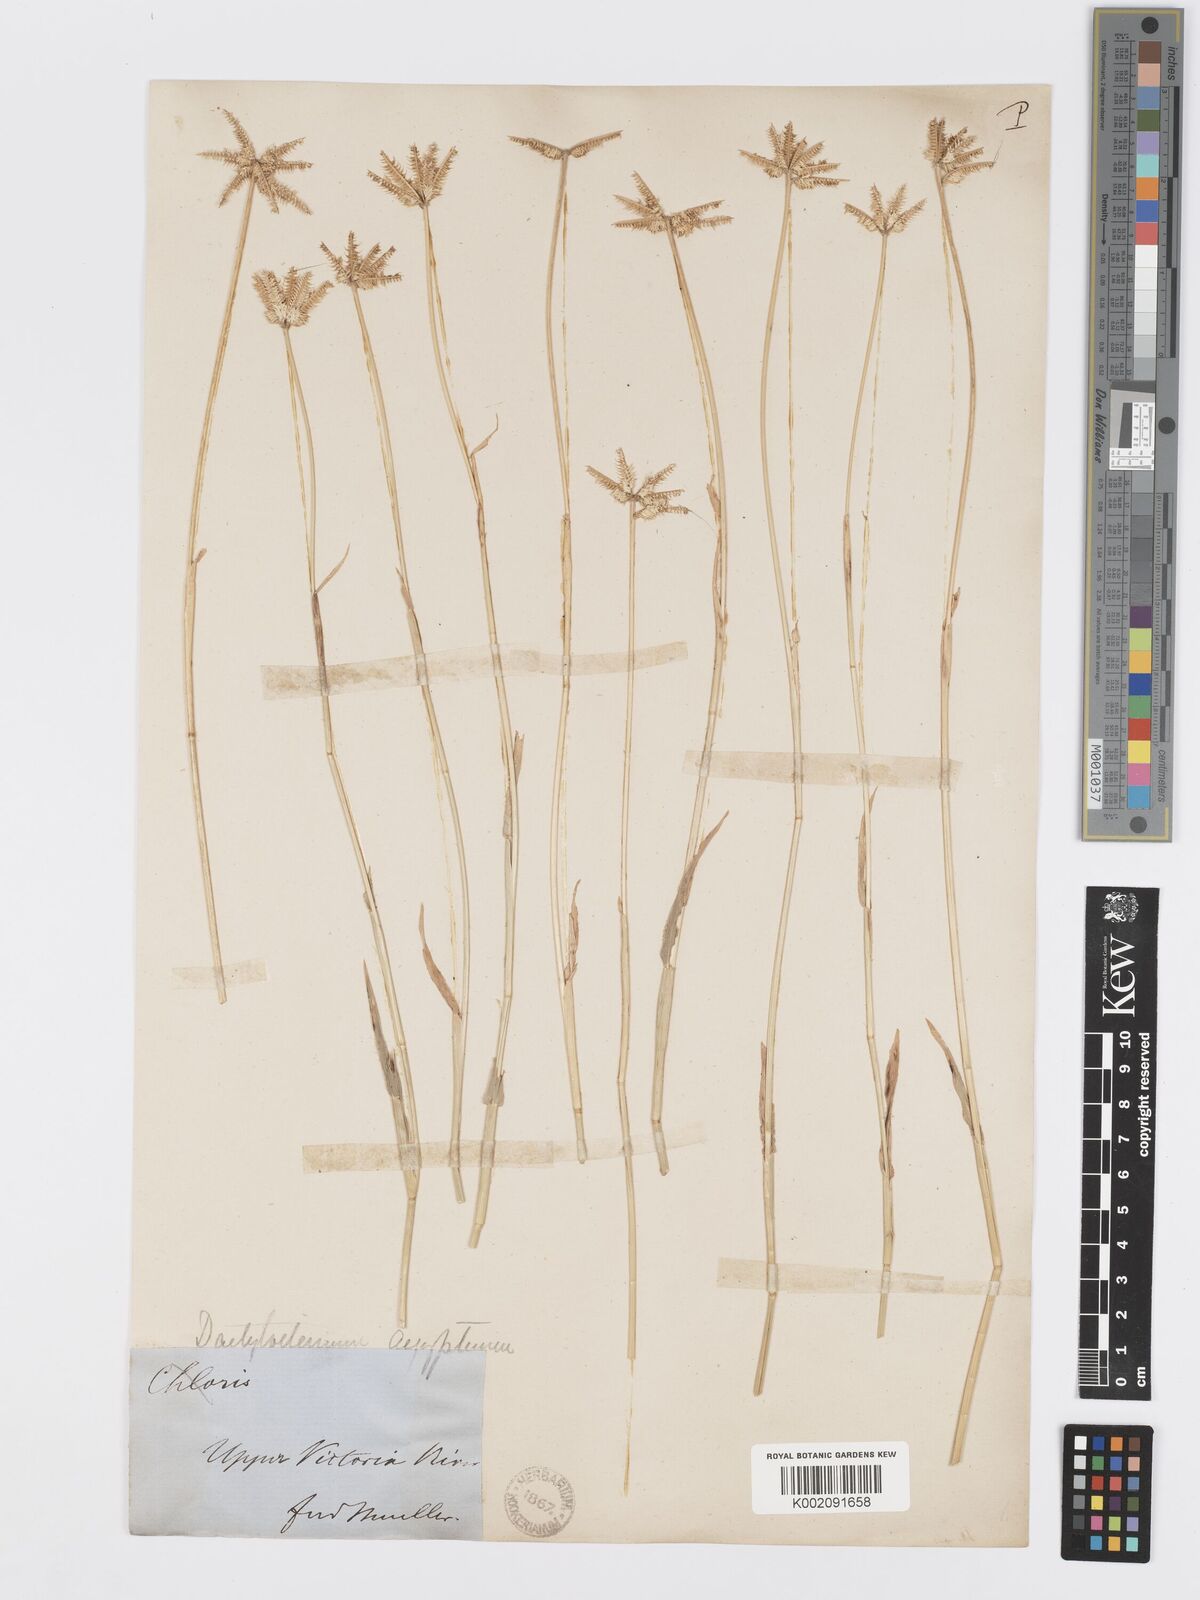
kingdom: Plantae
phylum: Tracheophyta
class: Liliopsida
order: Poales
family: Poaceae
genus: Dactyloctenium
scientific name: Dactyloctenium radulans
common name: Button-grass
